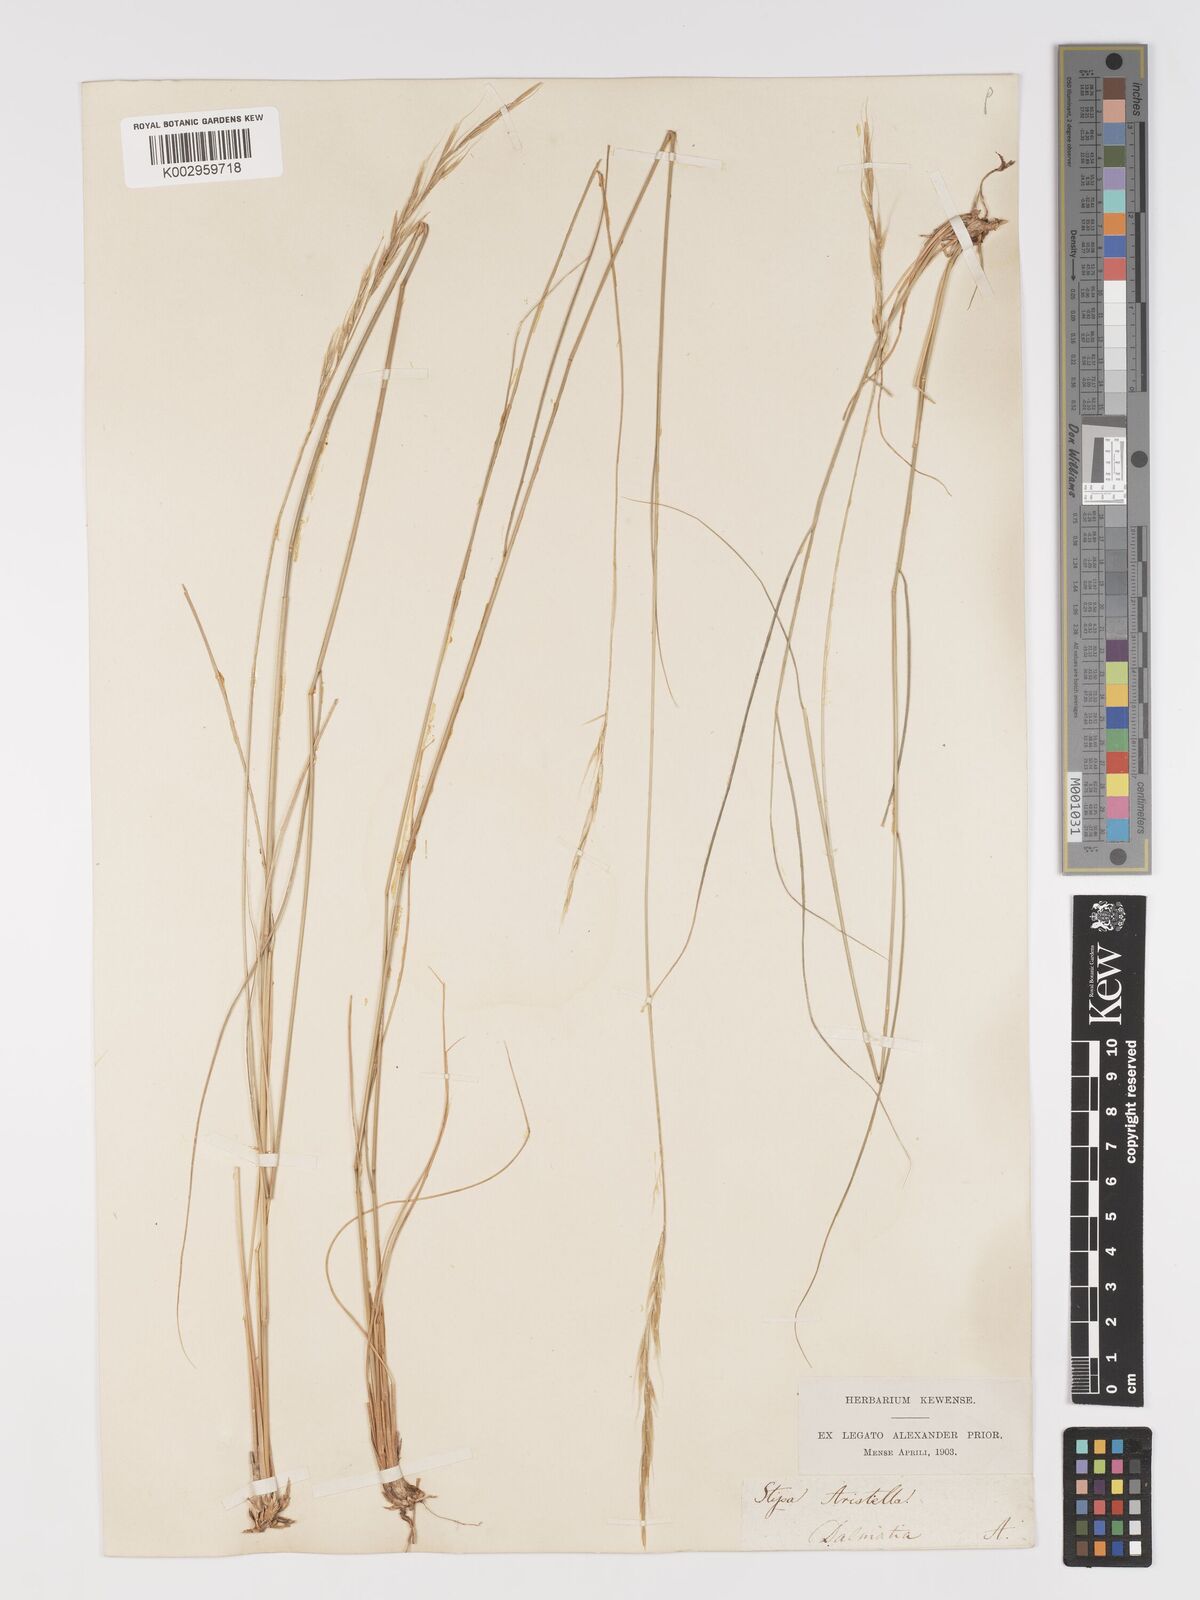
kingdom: Plantae
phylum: Tracheophyta
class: Liliopsida
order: Poales
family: Poaceae
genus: Achnatherum
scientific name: Achnatherum bromoides
